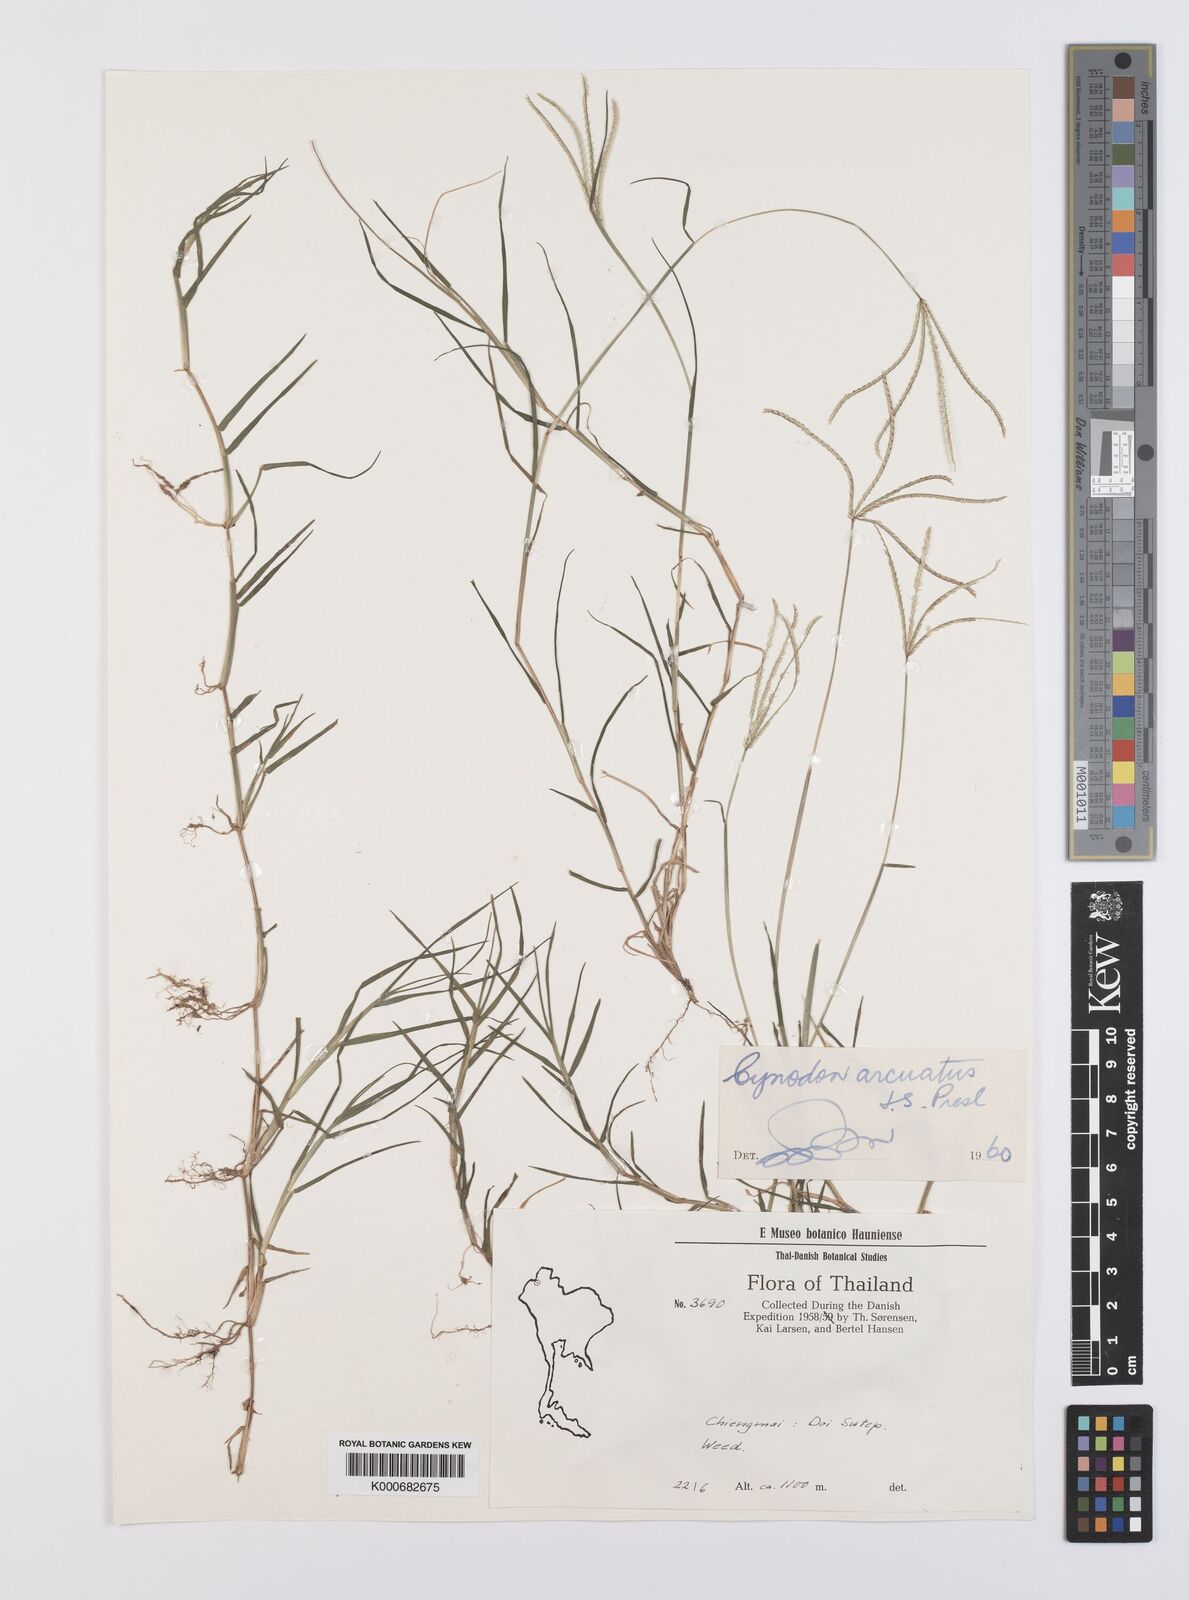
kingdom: Plantae
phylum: Tracheophyta
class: Liliopsida
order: Poales
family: Poaceae
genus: Cynodon
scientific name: Cynodon radiatus
